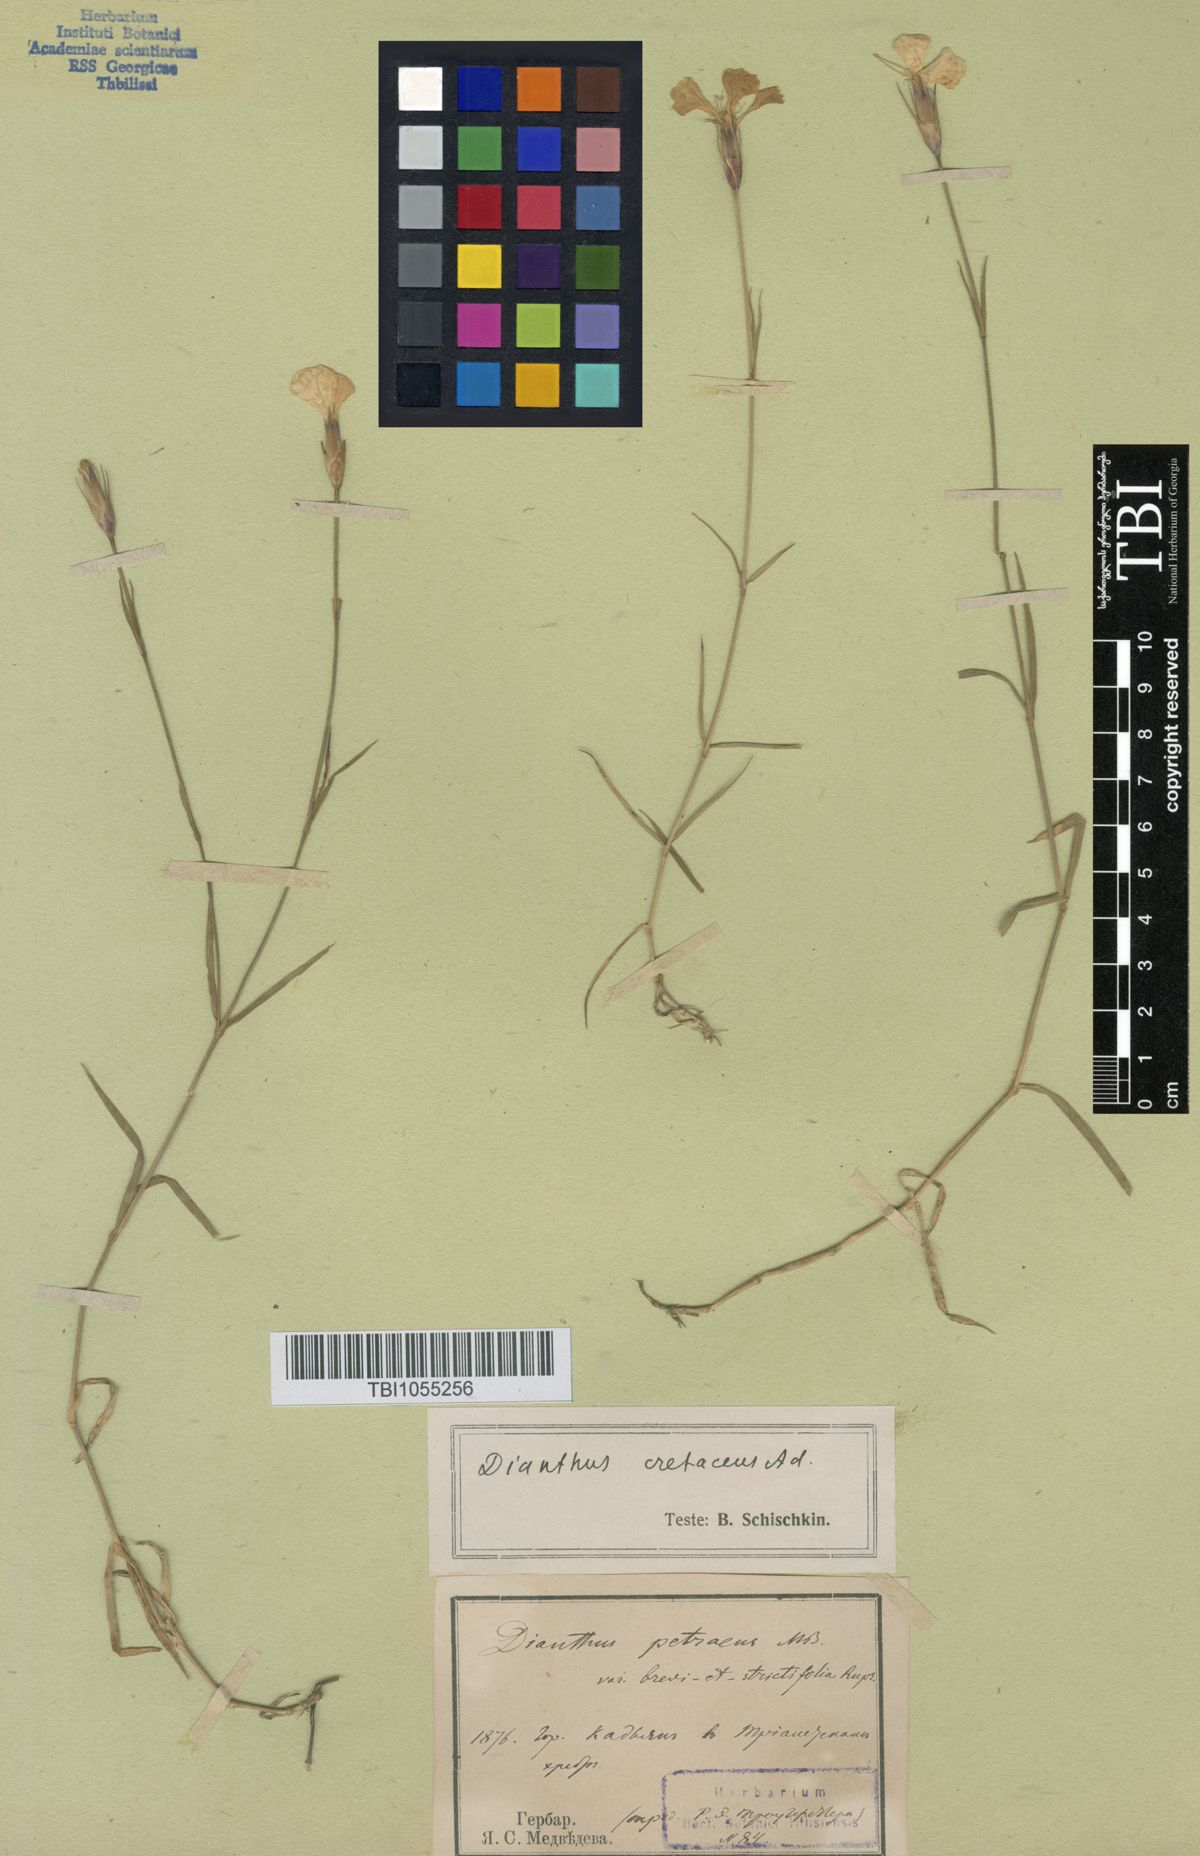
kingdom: Plantae
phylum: Tracheophyta
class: Magnoliopsida
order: Caryophyllales
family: Caryophyllaceae
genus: Dianthus
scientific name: Dianthus cretaceus
